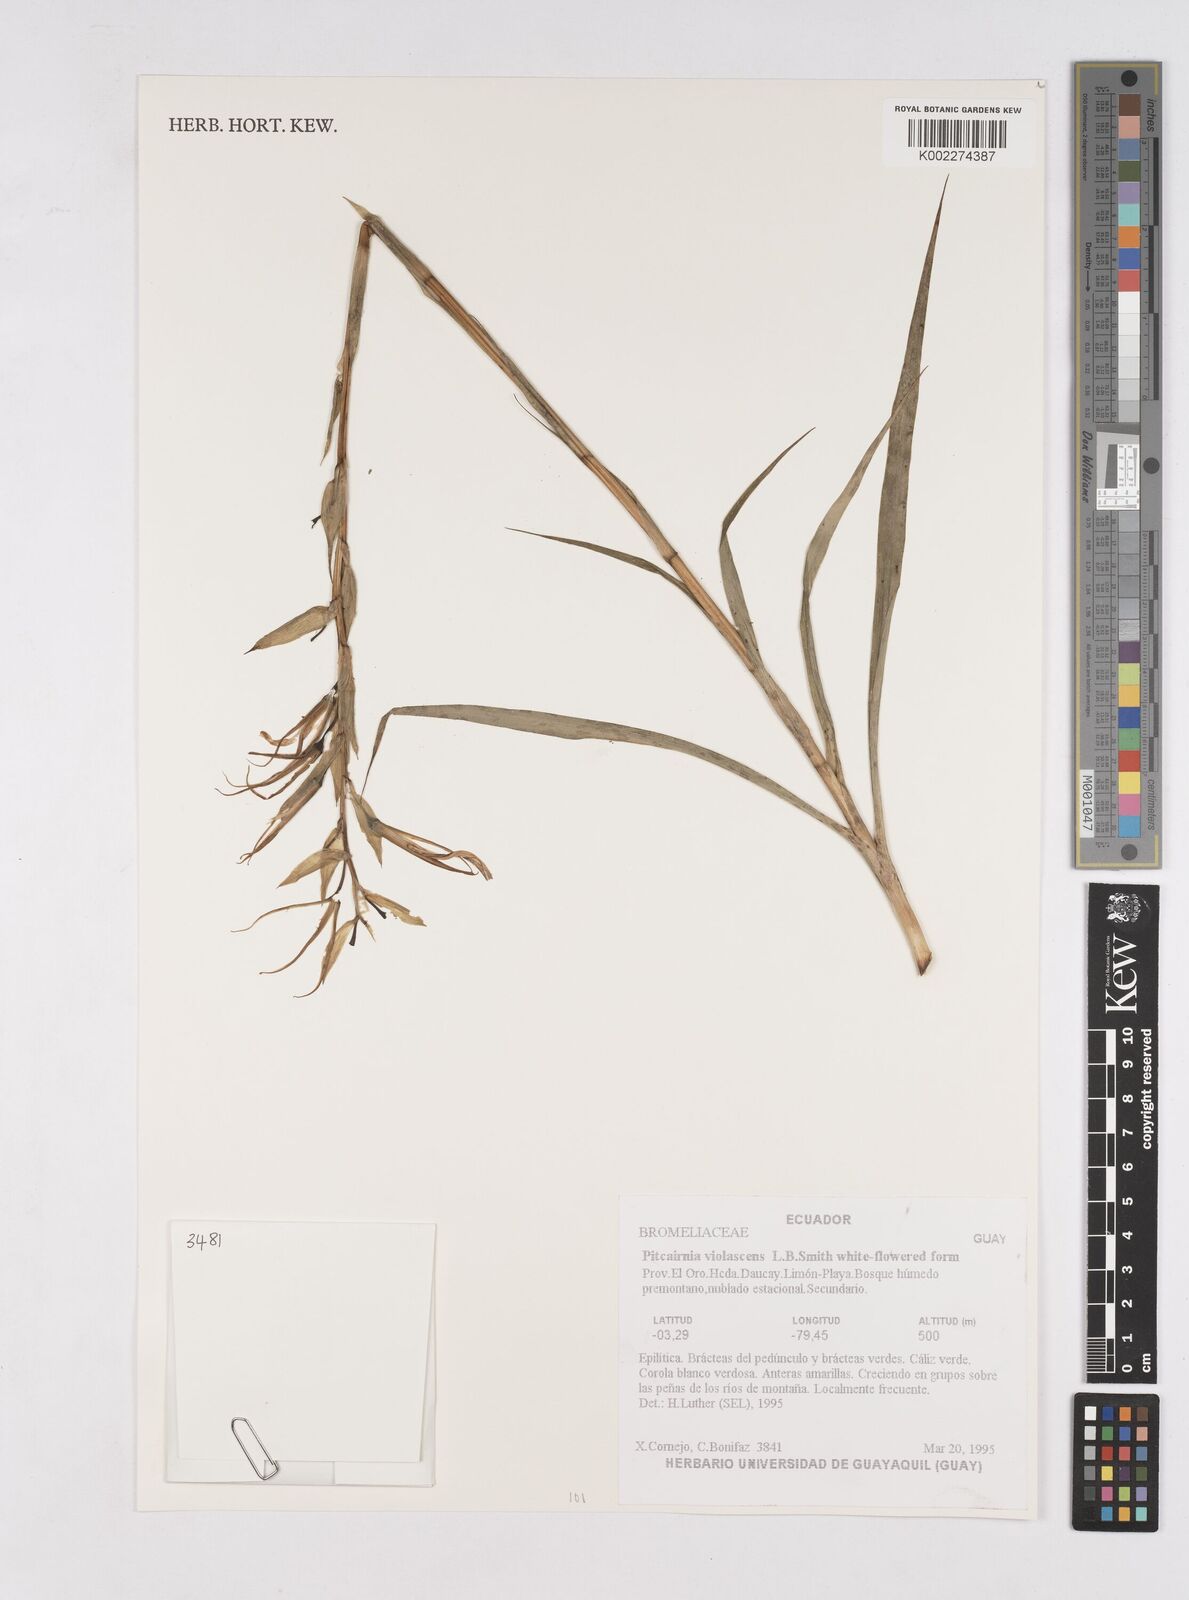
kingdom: Plantae
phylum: Tracheophyta
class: Liliopsida
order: Poales
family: Bromeliaceae
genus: Pitcairnia
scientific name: Pitcairnia violascens
